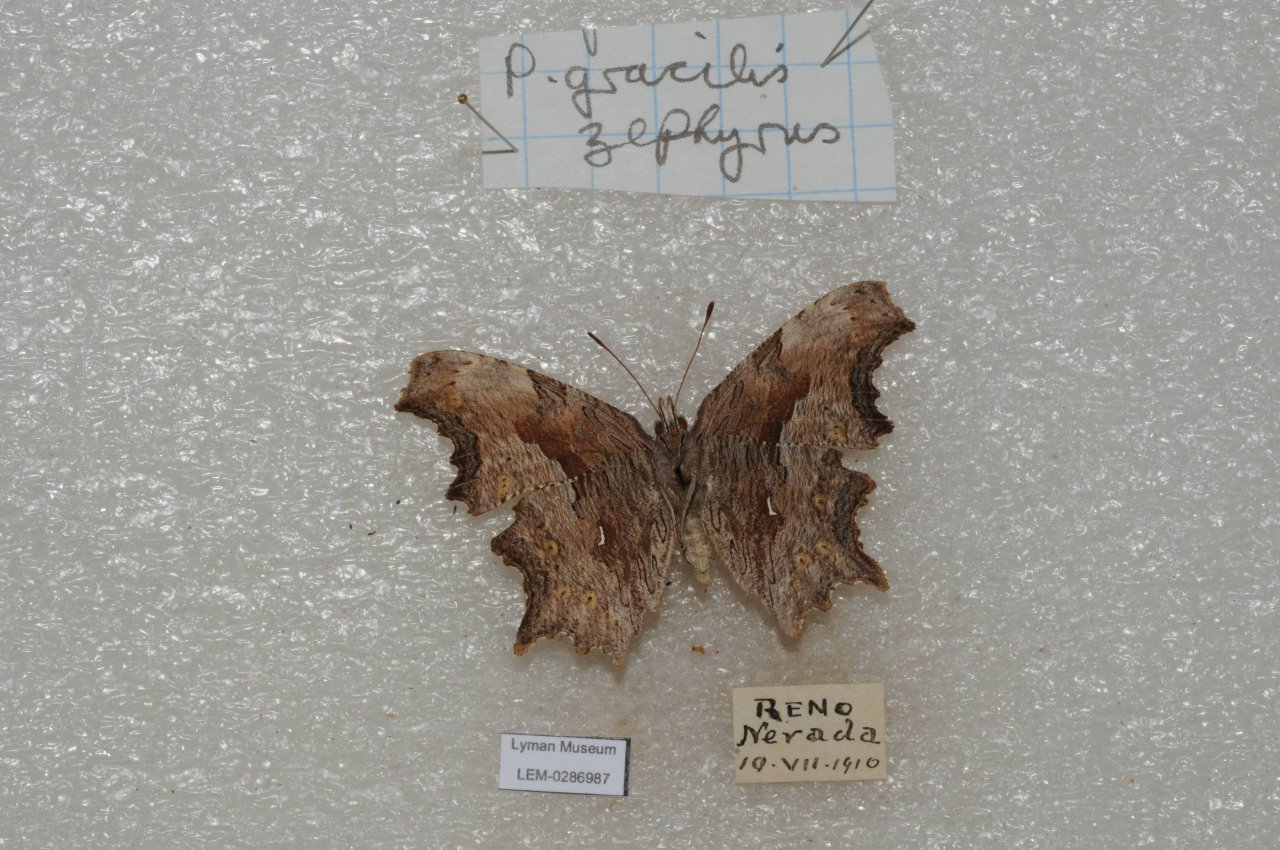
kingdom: Animalia
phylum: Arthropoda
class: Insecta
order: Lepidoptera
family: Nymphalidae
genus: Polygonia
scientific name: Polygonia gracilis
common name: Hoary Comma
